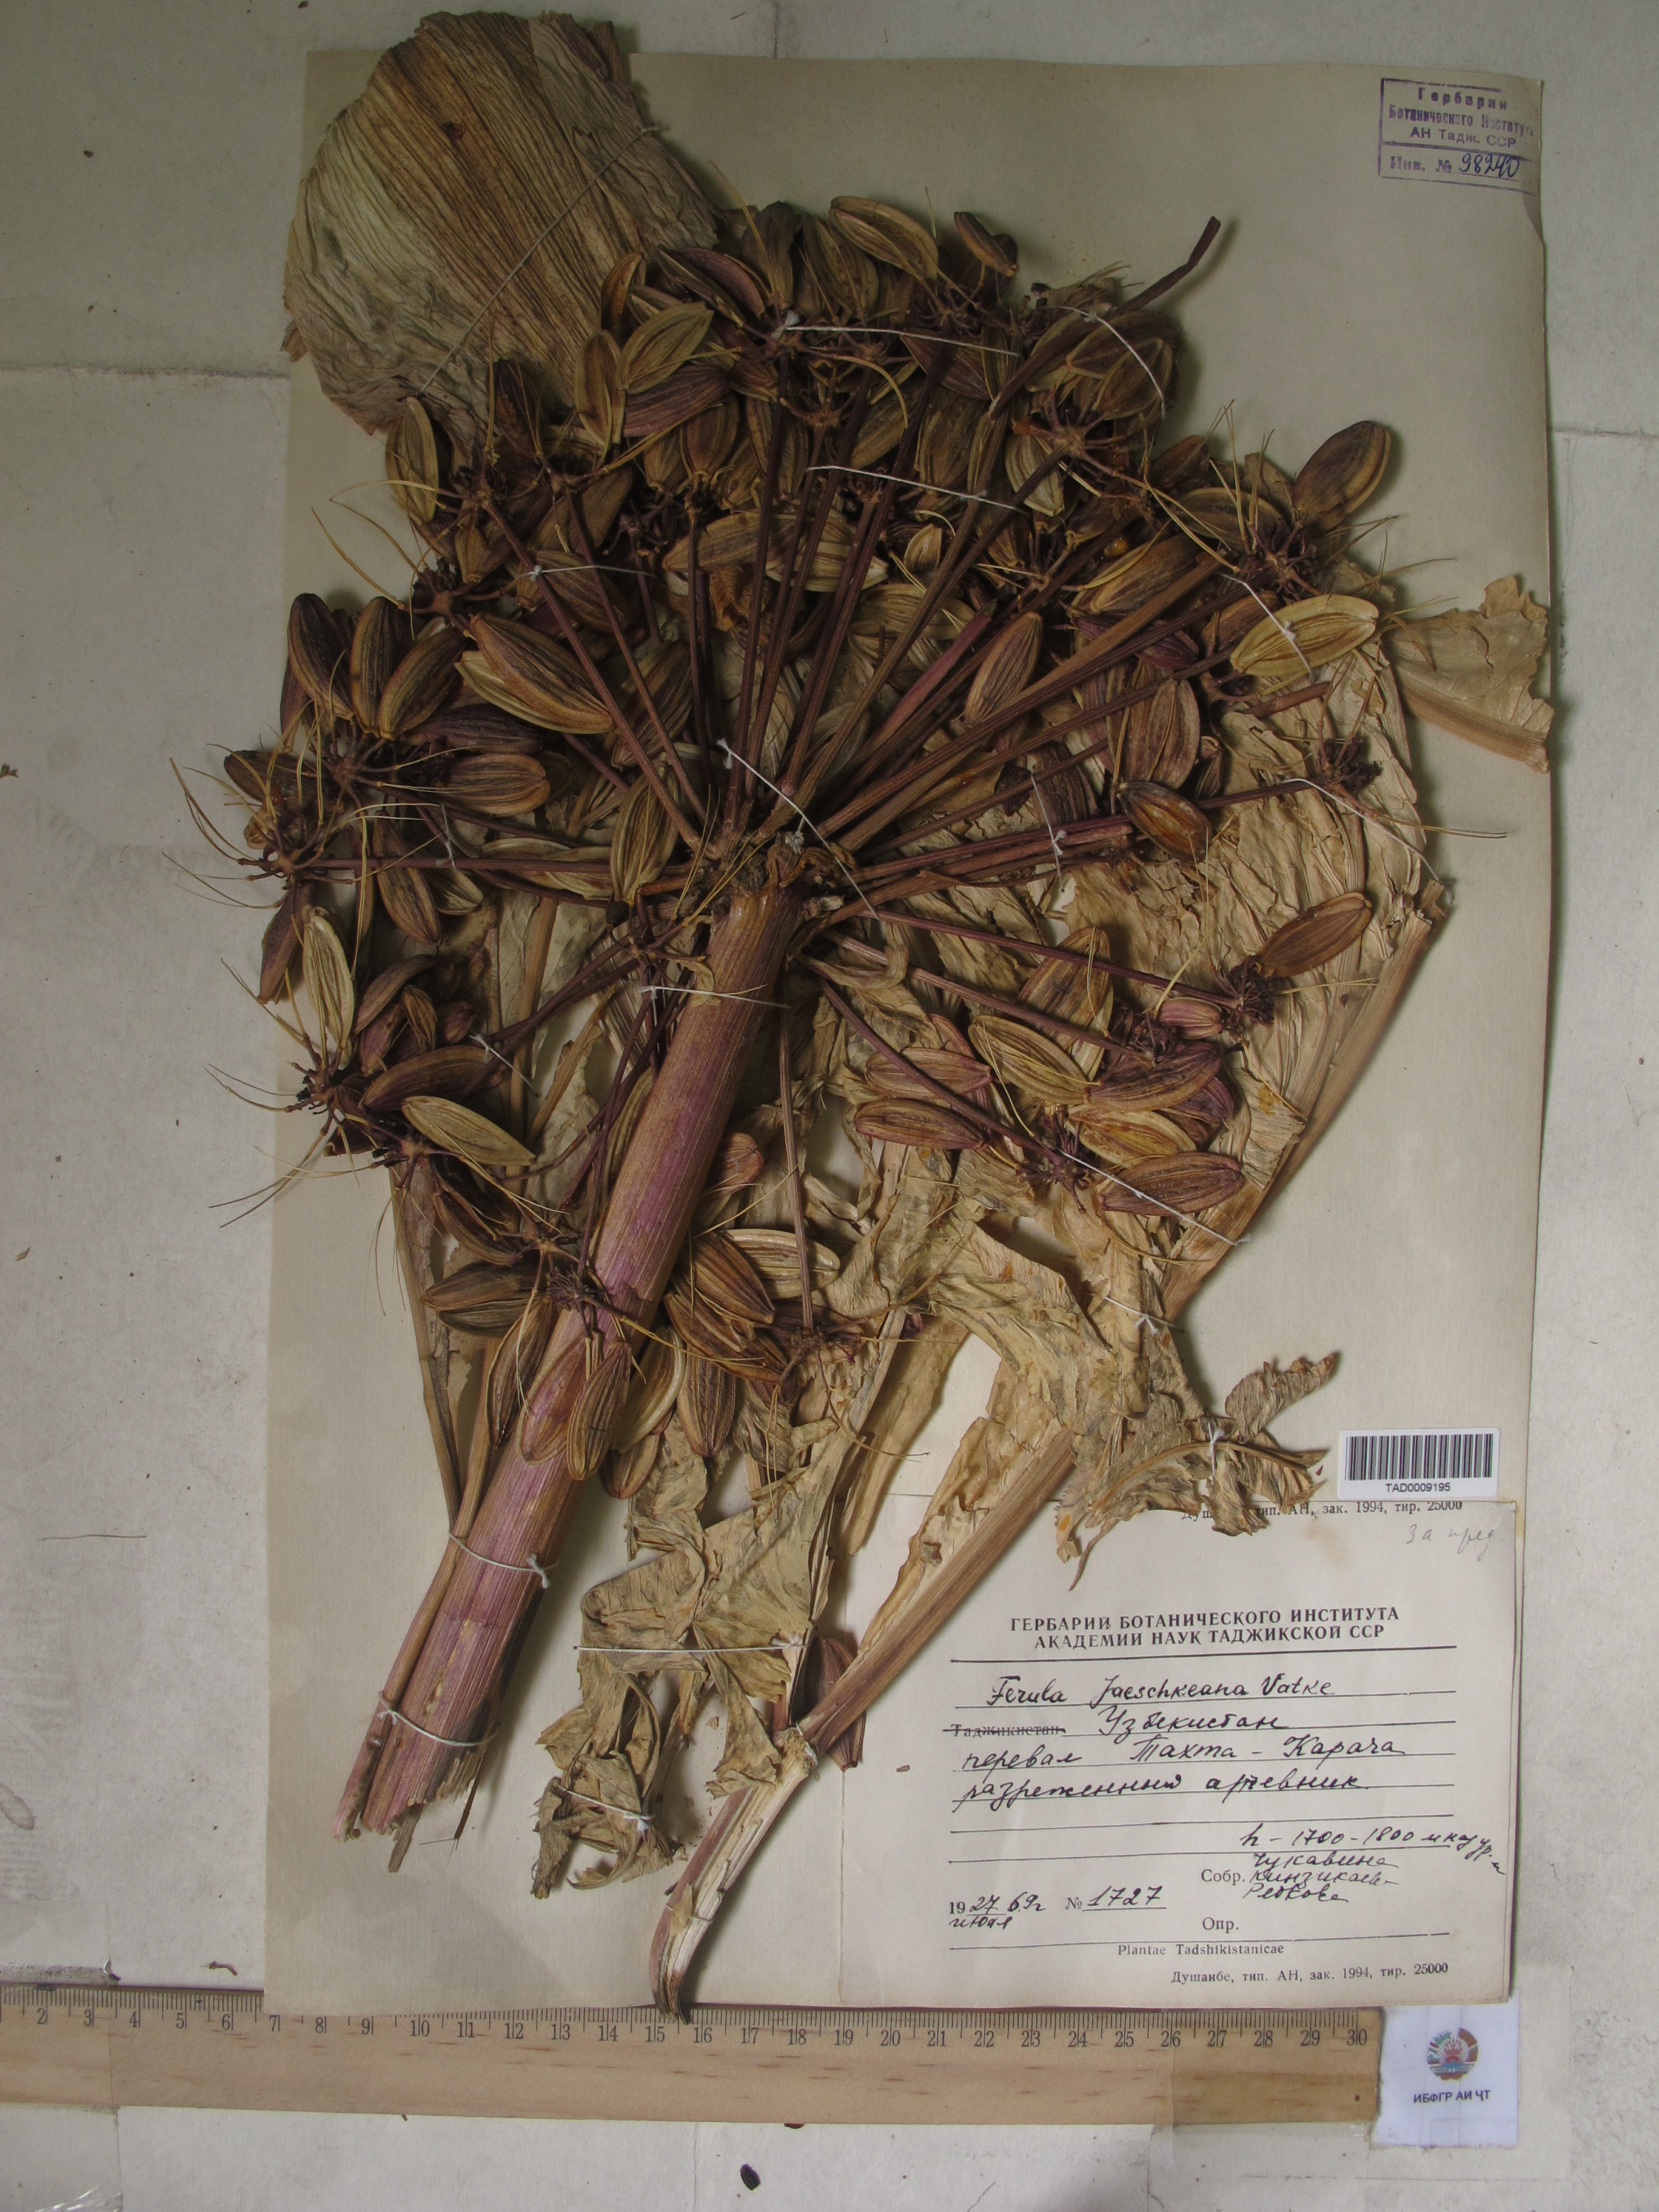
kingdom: Plantae
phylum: Tracheophyta
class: Magnoliopsida
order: Apiales
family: Apiaceae
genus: Ferula
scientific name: Ferula jaeschkeana
